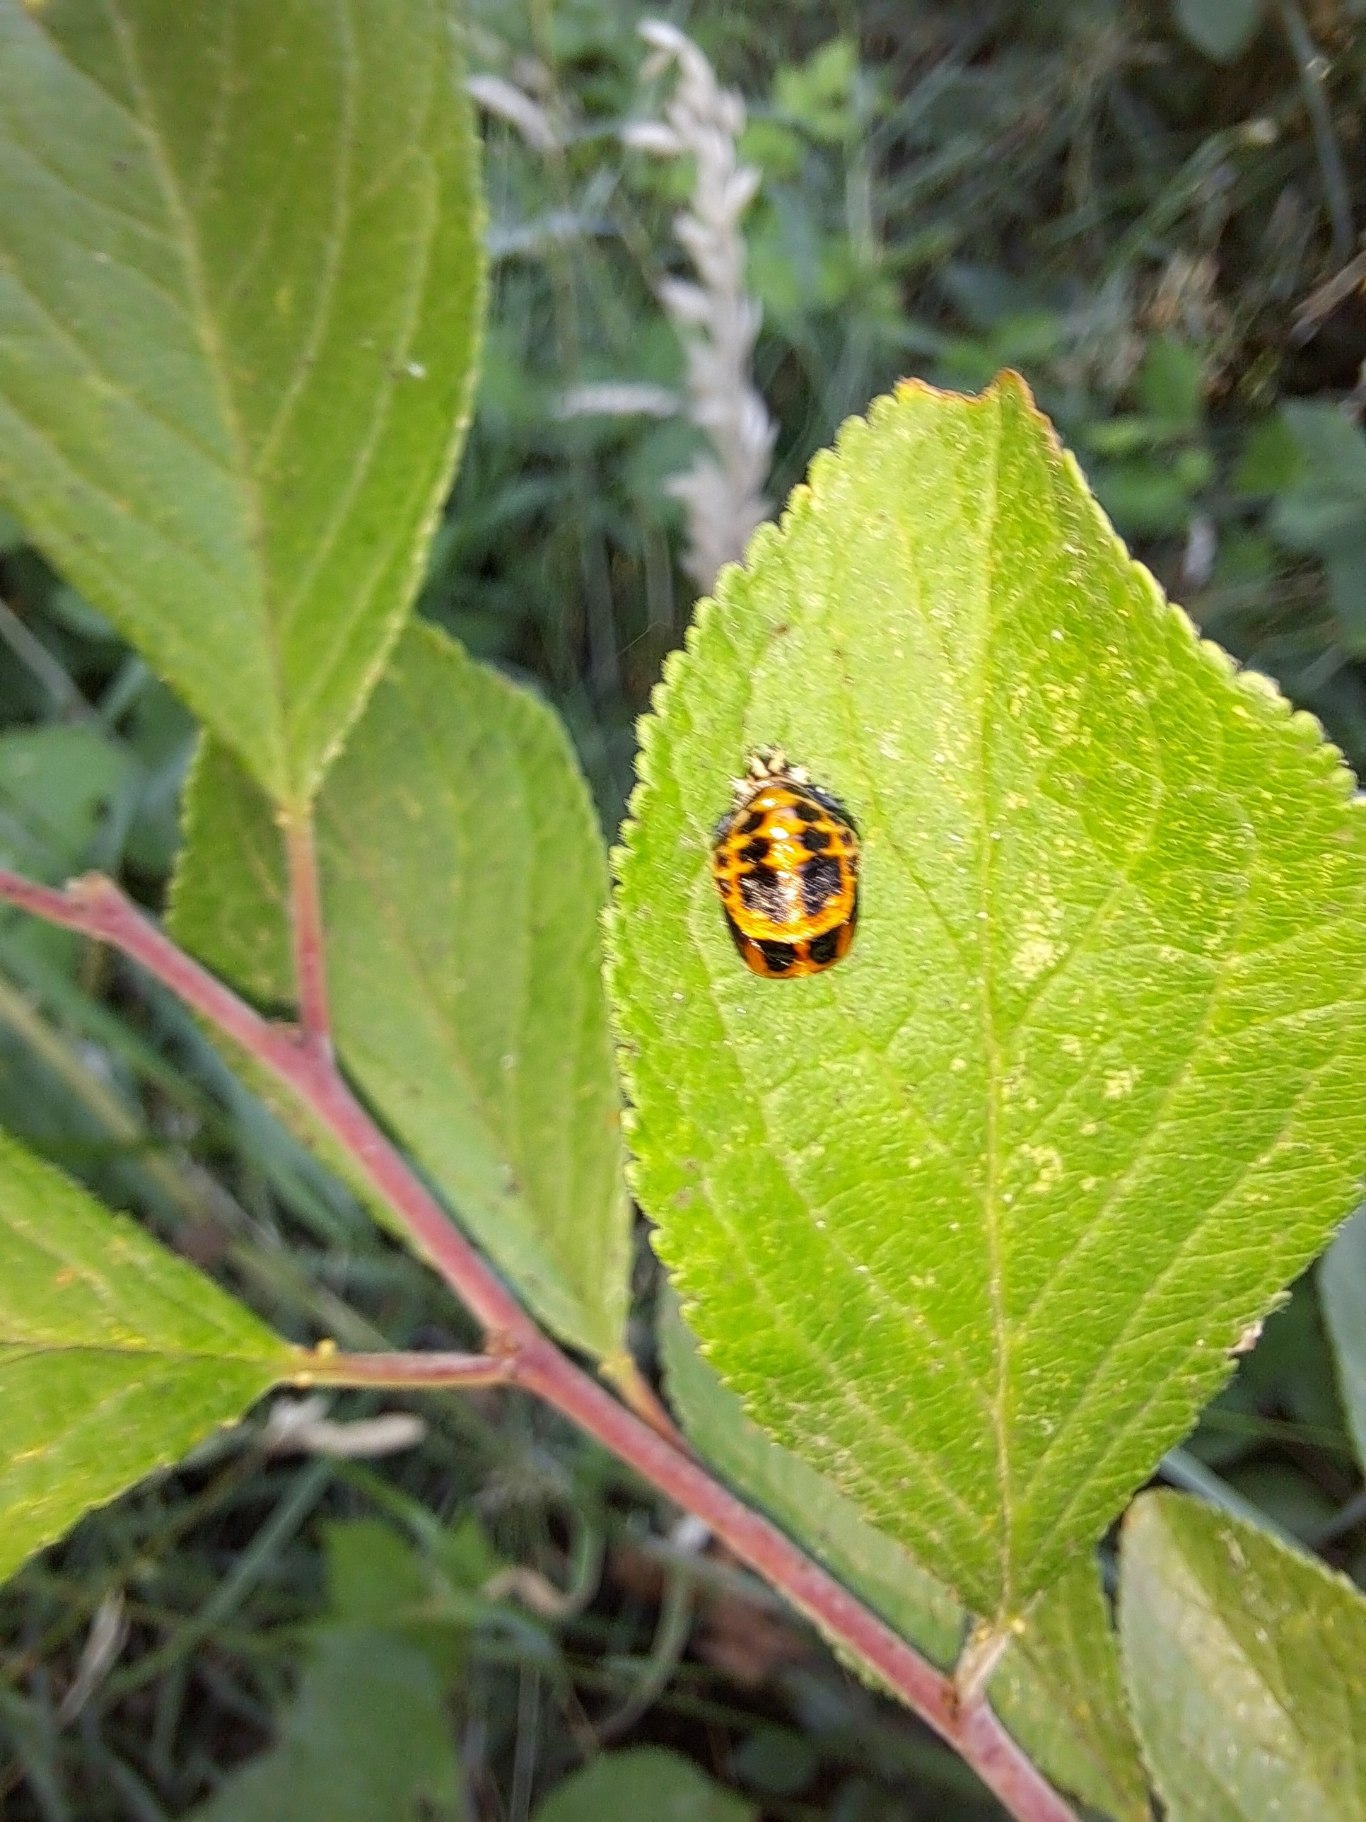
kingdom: Animalia
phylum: Arthropoda
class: Insecta
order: Coleoptera
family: Coccinellidae
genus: Harmonia
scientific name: Harmonia axyridis
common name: Harlekinmariehøne
